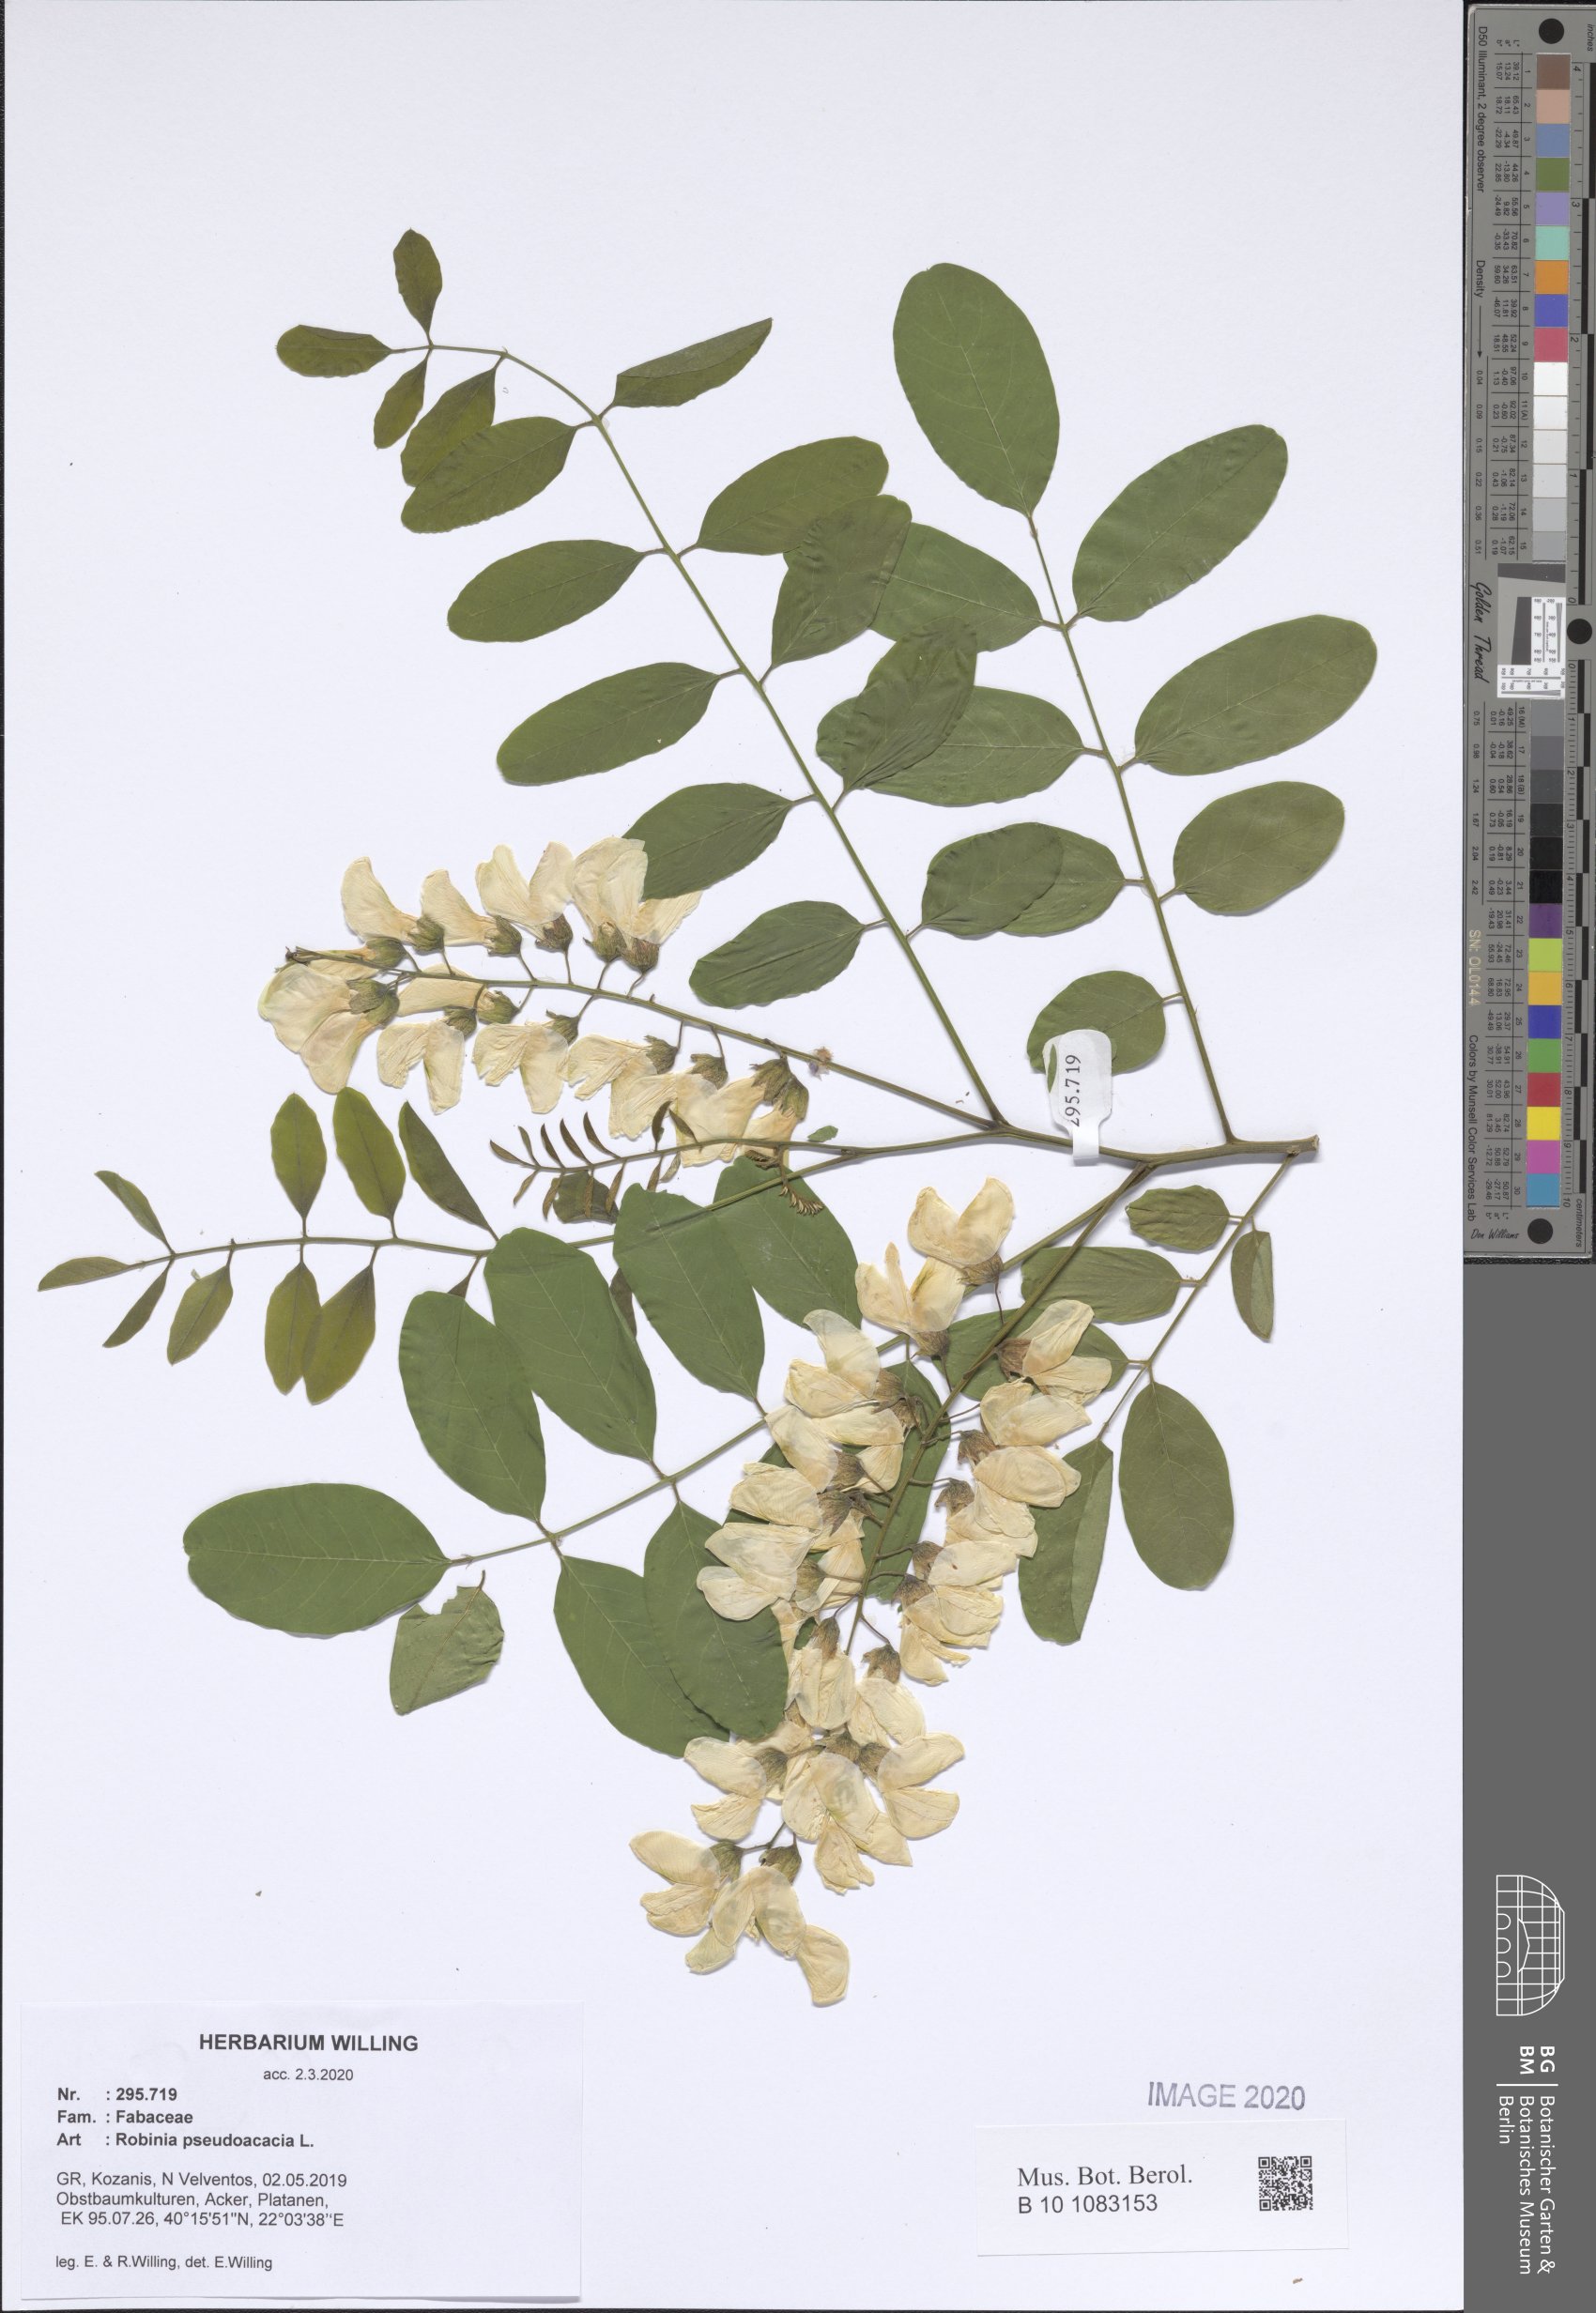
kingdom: Plantae
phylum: Tracheophyta
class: Magnoliopsida
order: Fabales
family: Fabaceae
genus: Robinia
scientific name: Robinia pseudoacacia
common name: Black locust
